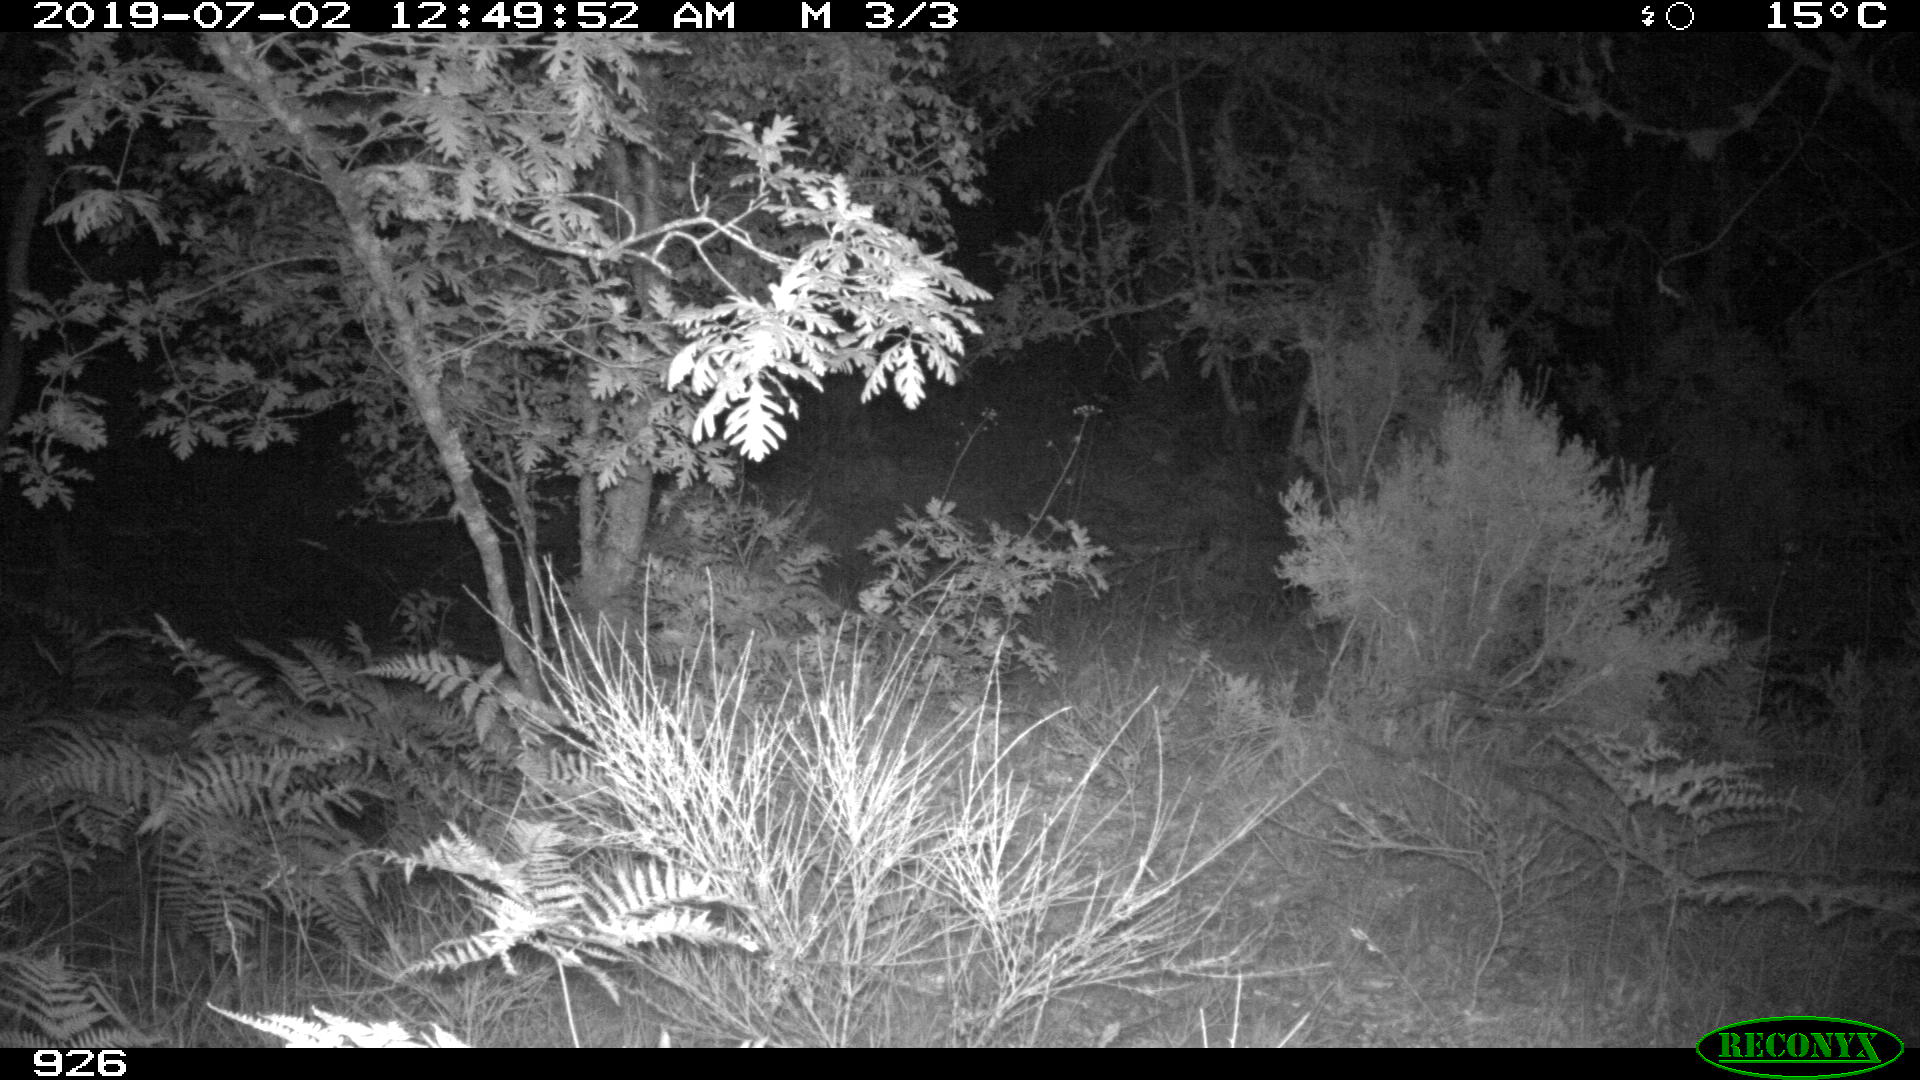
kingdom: Animalia
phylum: Chordata
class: Mammalia
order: Artiodactyla
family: Cervidae
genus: Capreolus
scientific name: Capreolus capreolus
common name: Western roe deer
